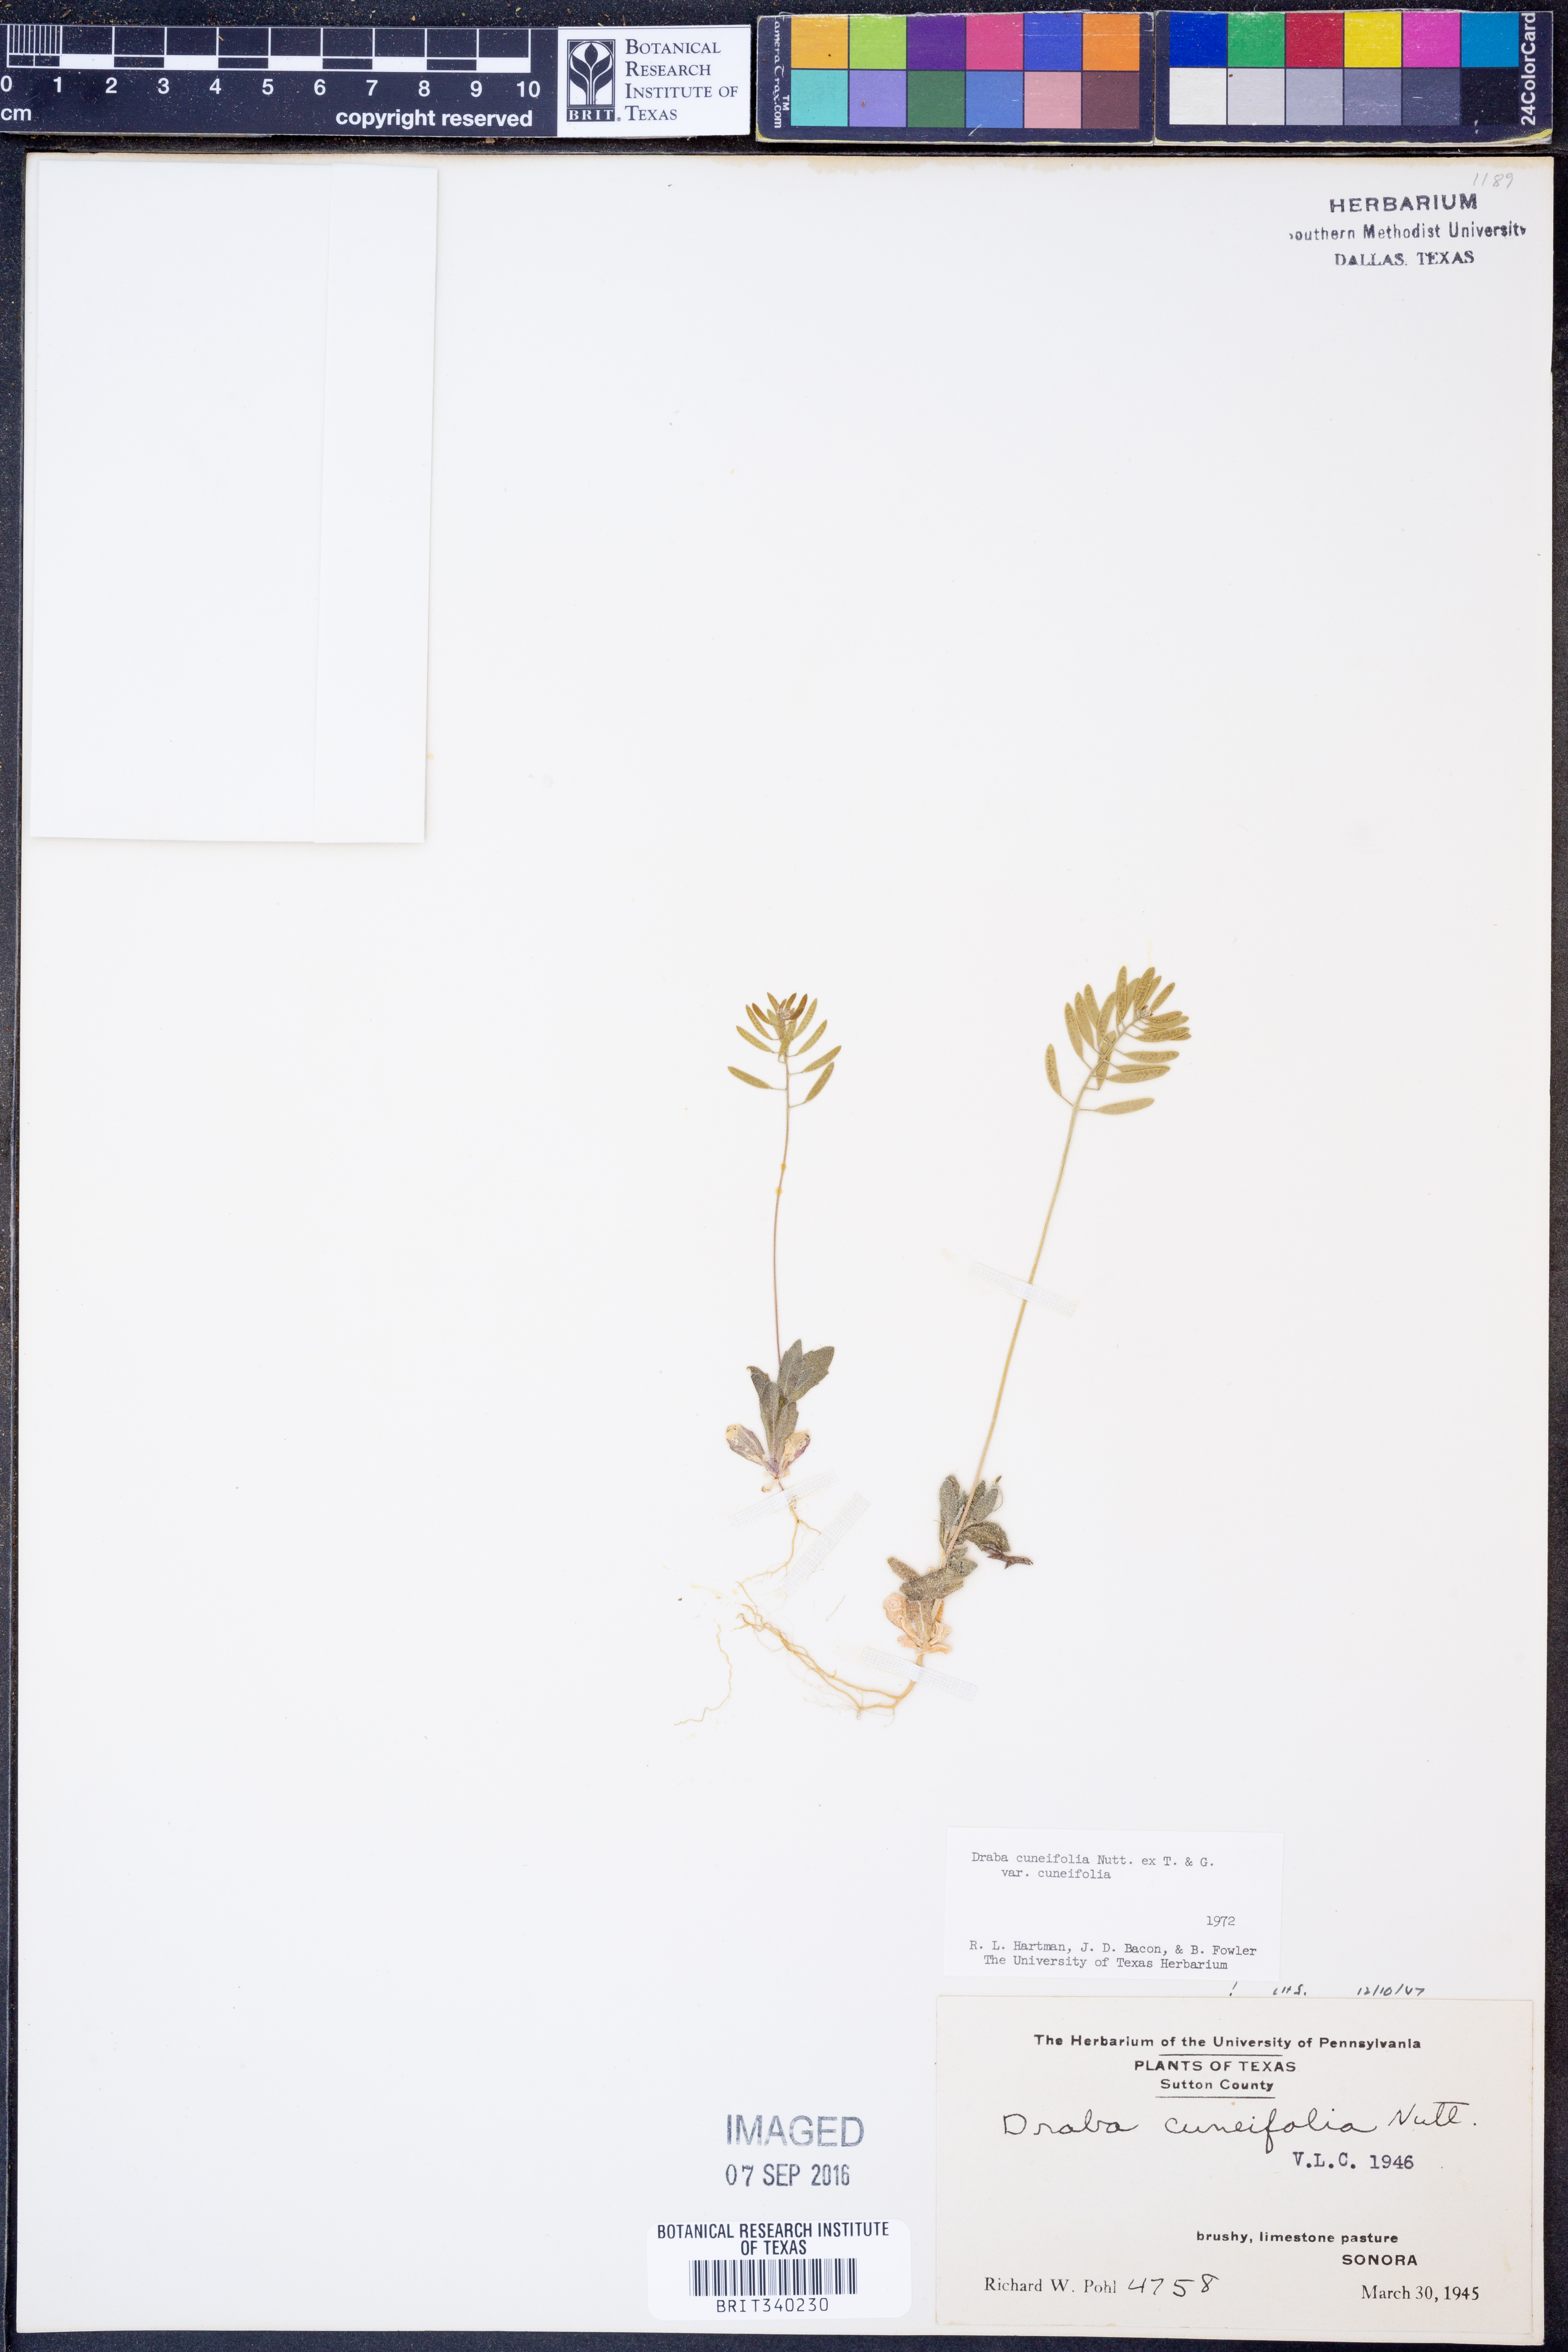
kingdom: Plantae
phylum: Tracheophyta
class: Magnoliopsida
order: Brassicales
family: Brassicaceae
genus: Tomostima
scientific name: Tomostima cuneifolia
